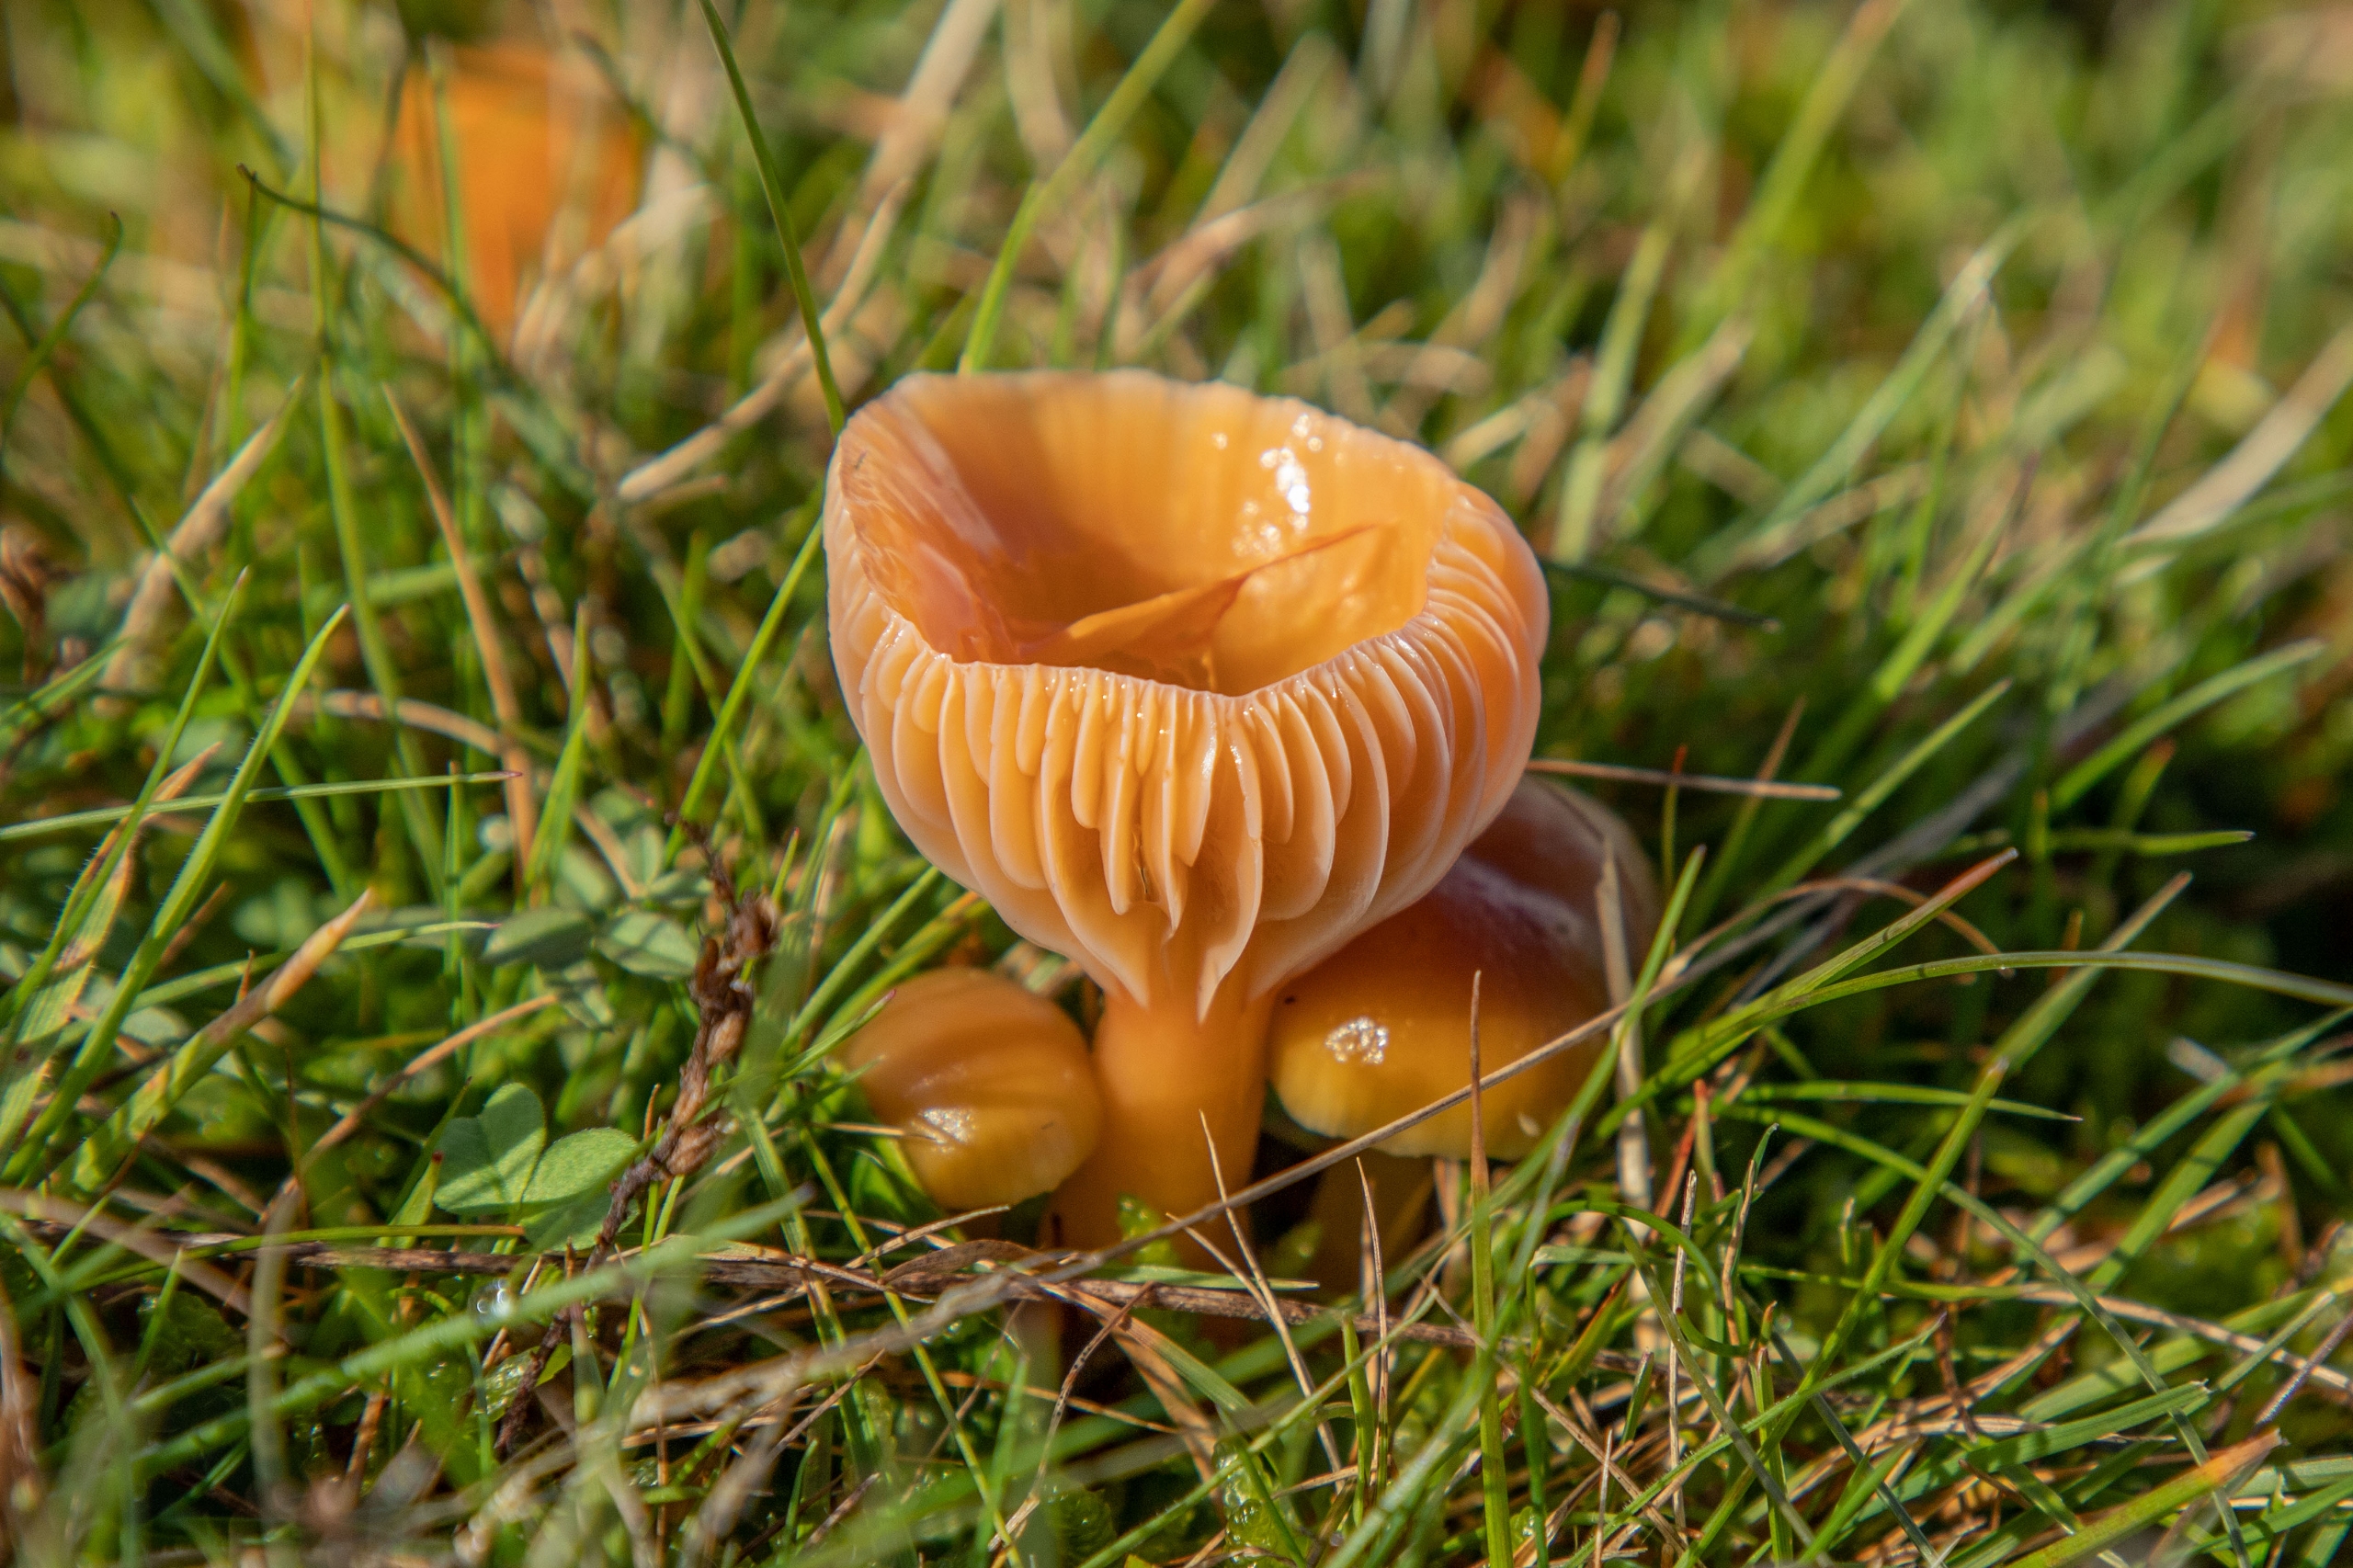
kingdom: Fungi
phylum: Basidiomycota
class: Agaricomycetes
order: Agaricales
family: Hygrophoraceae
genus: Gliophorus
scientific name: Gliophorus laetus
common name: Brusk-vokshat
